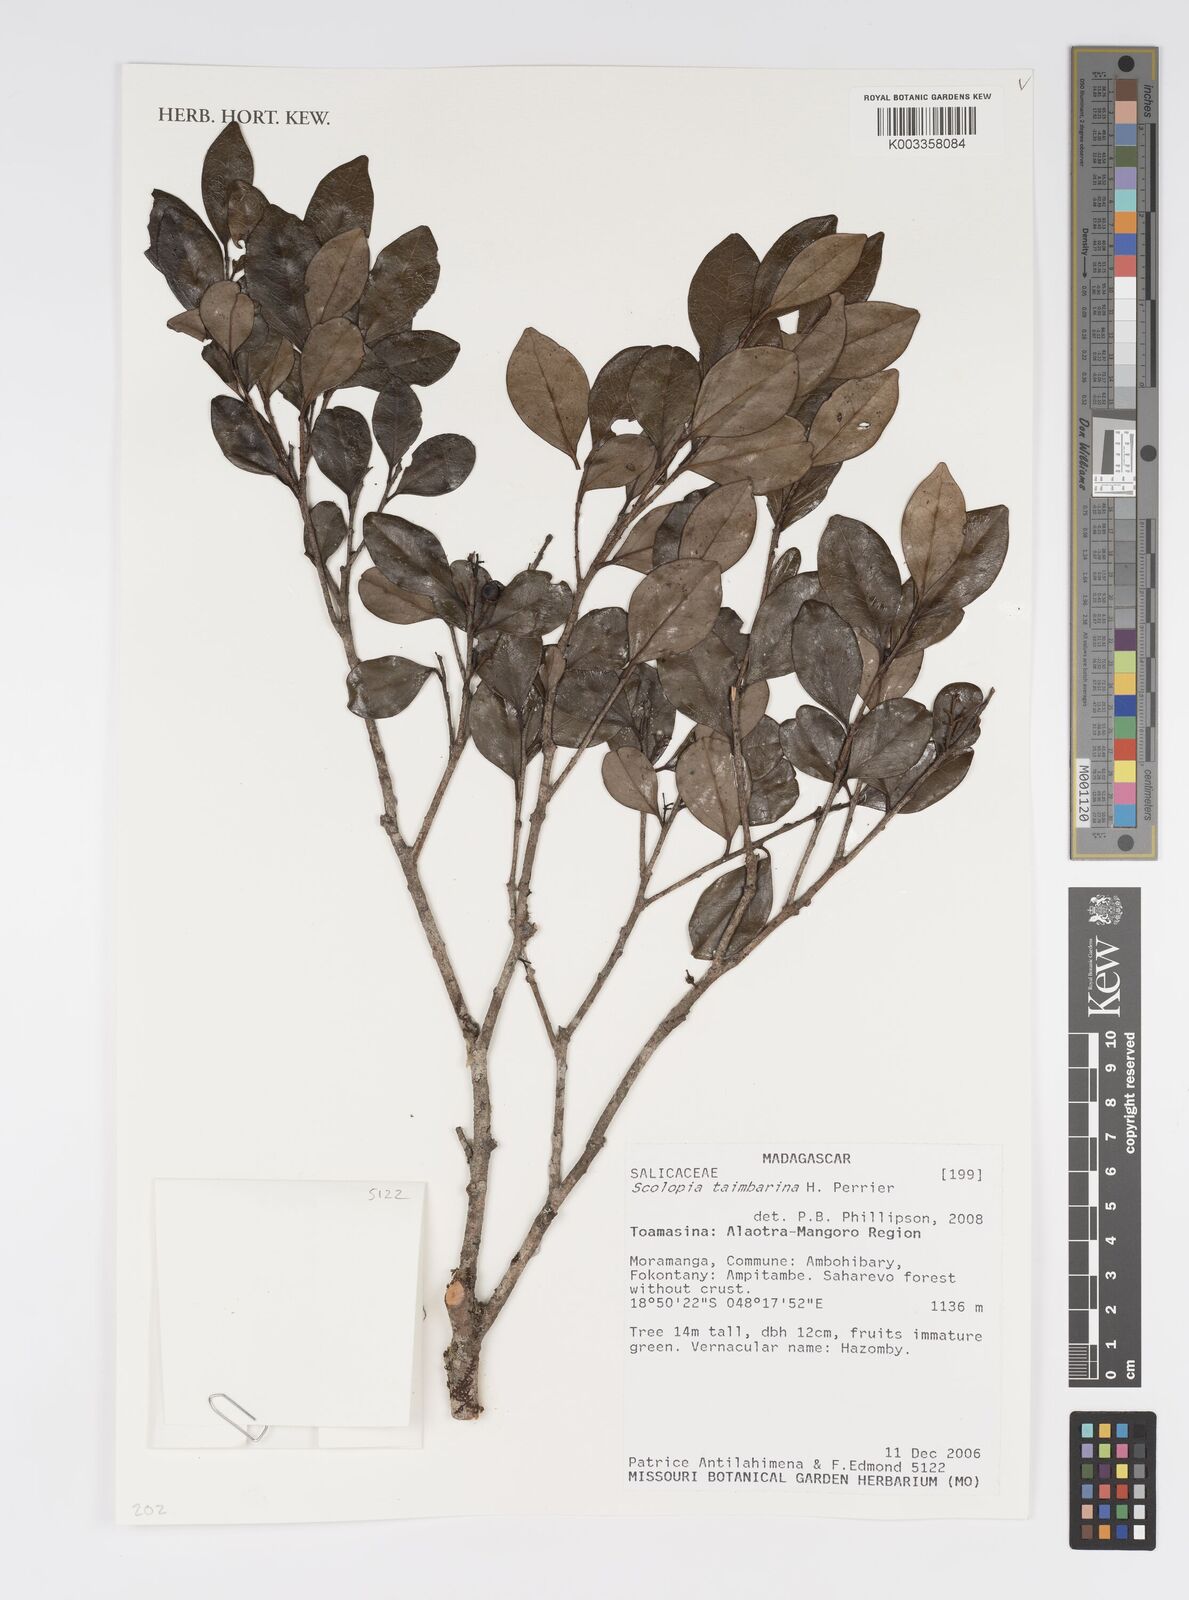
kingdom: Plantae
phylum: Tracheophyta
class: Magnoliopsida
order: Malpighiales
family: Salicaceae
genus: Scolopia
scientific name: Scolopia taimbarina
